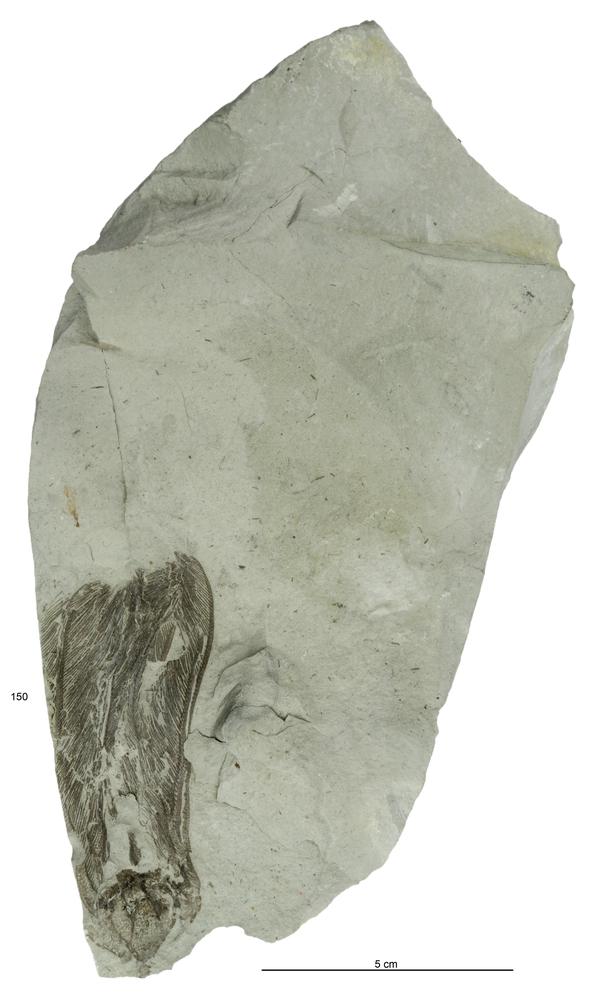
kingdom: Animalia
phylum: Echinodermata
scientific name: Echinodermata
